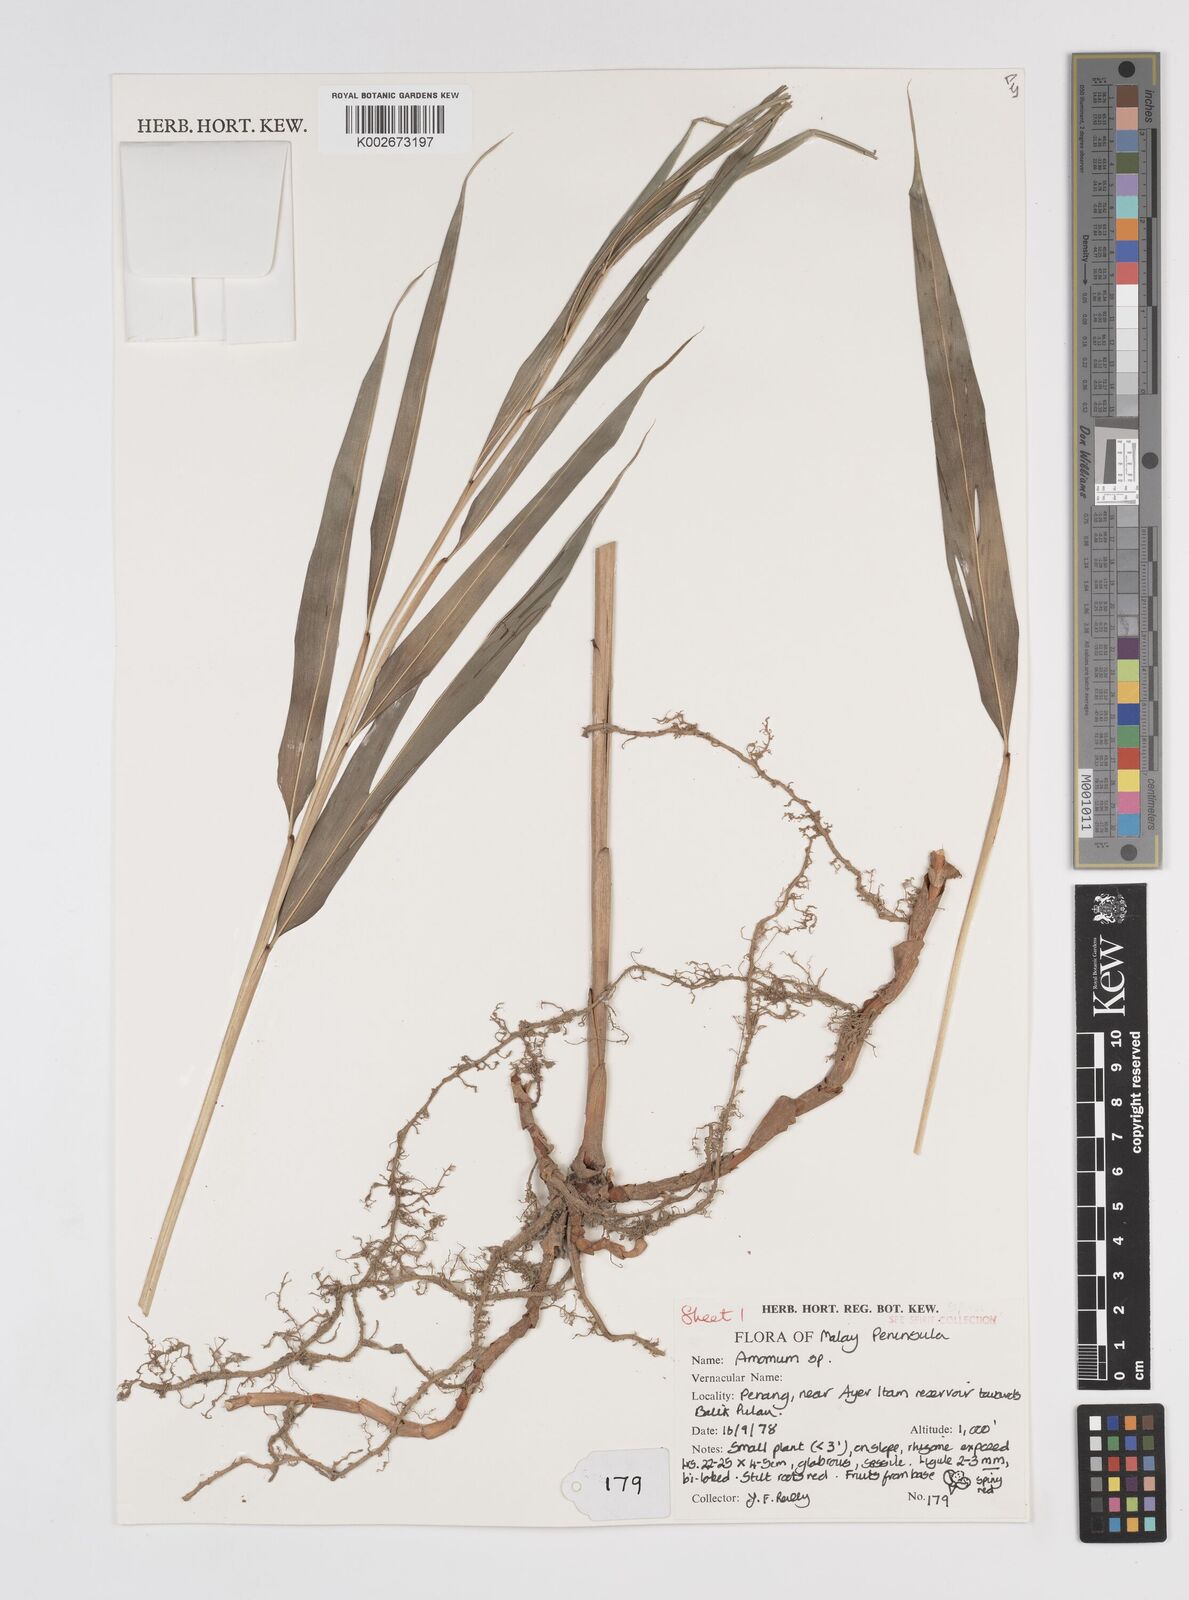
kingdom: Plantae
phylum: Tracheophyta
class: Liliopsida
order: Zingiberales
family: Zingiberaceae
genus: Amomum
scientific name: Amomum
